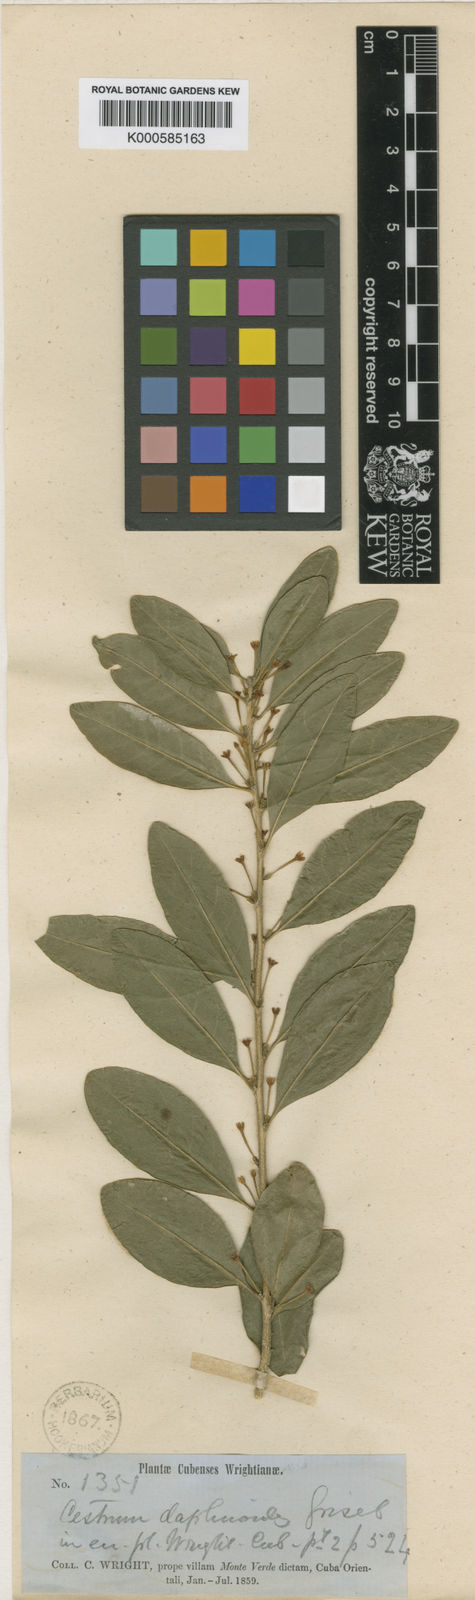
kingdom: Plantae
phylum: Tracheophyta
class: Magnoliopsida
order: Solanales
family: Solanaceae
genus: Cestrum
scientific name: Cestrum daphnoides
